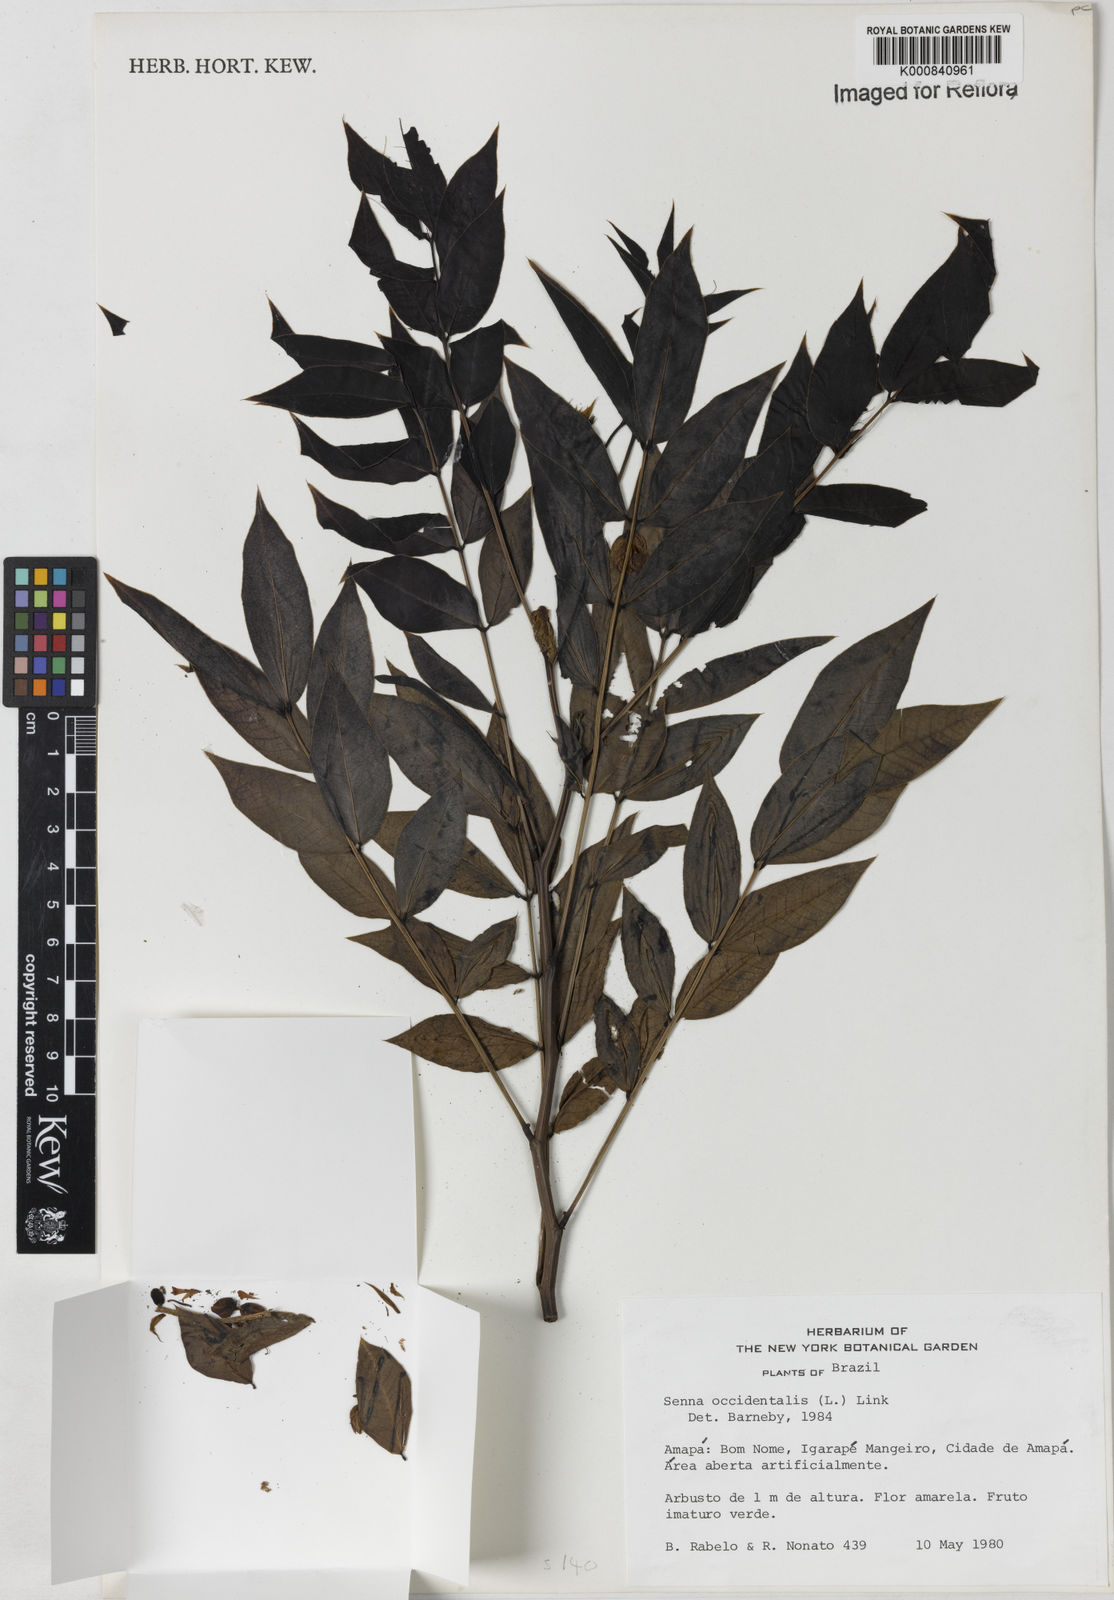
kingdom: Plantae
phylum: Tracheophyta
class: Magnoliopsida
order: Fabales
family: Fabaceae
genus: Senna
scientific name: Senna occidentalis
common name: Septicweed
